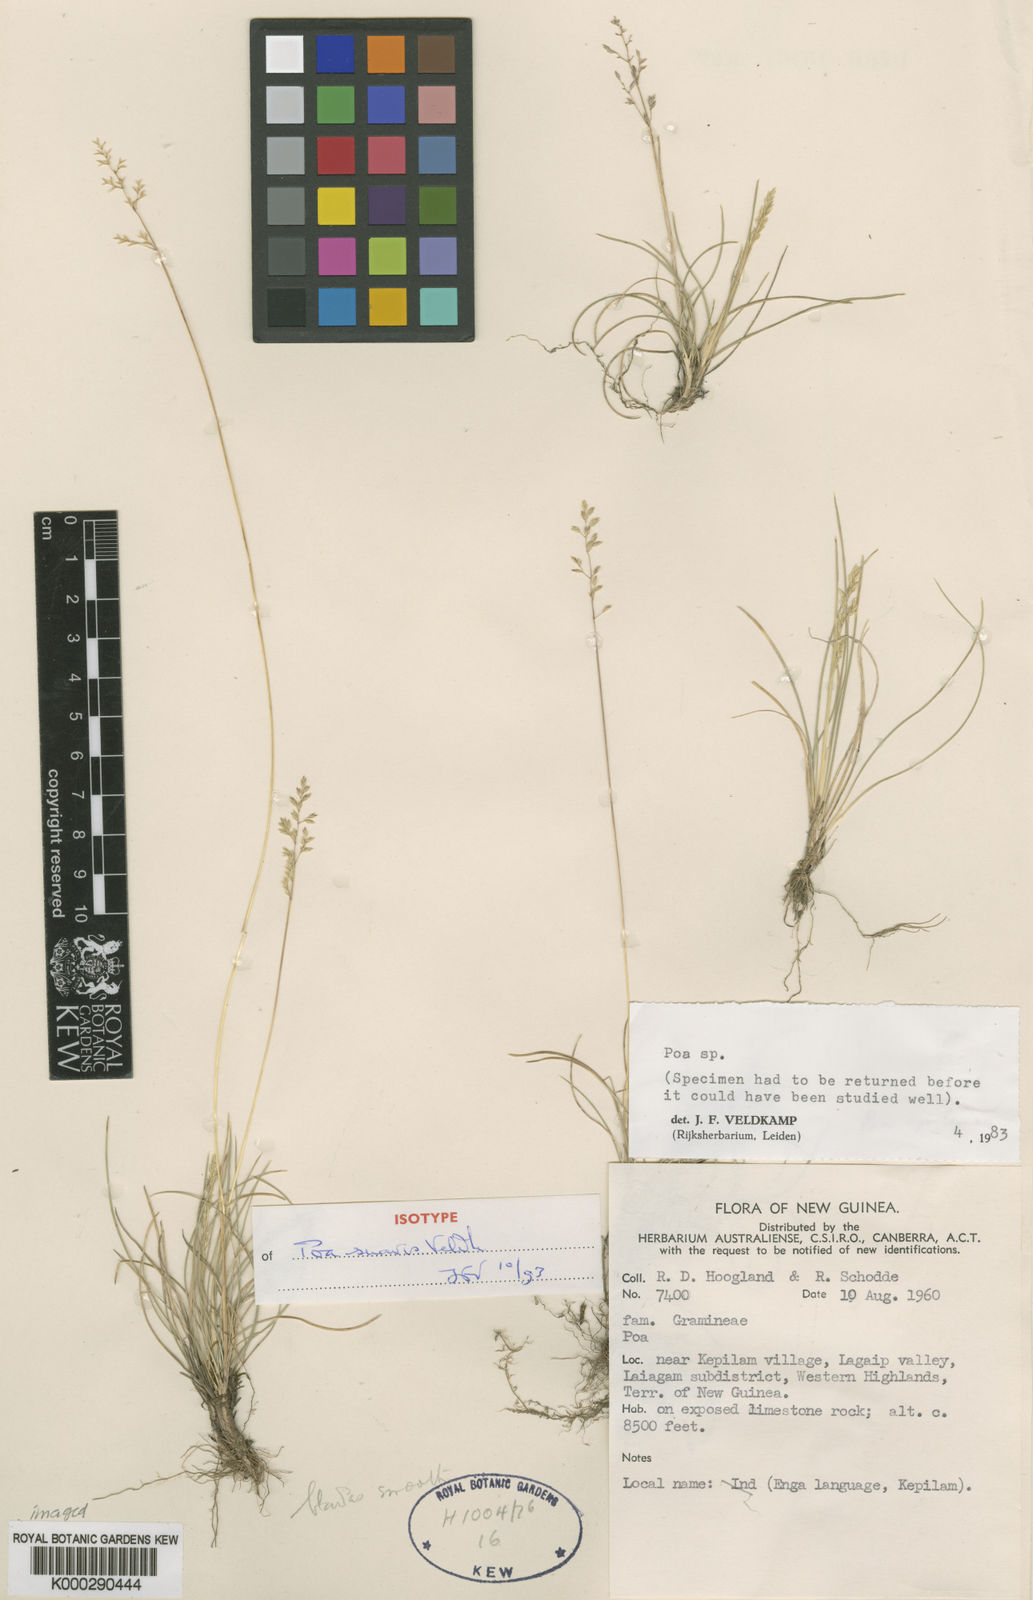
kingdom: Plantae
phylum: Tracheophyta
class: Liliopsida
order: Poales
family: Poaceae
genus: Poa
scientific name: Poa suavis
